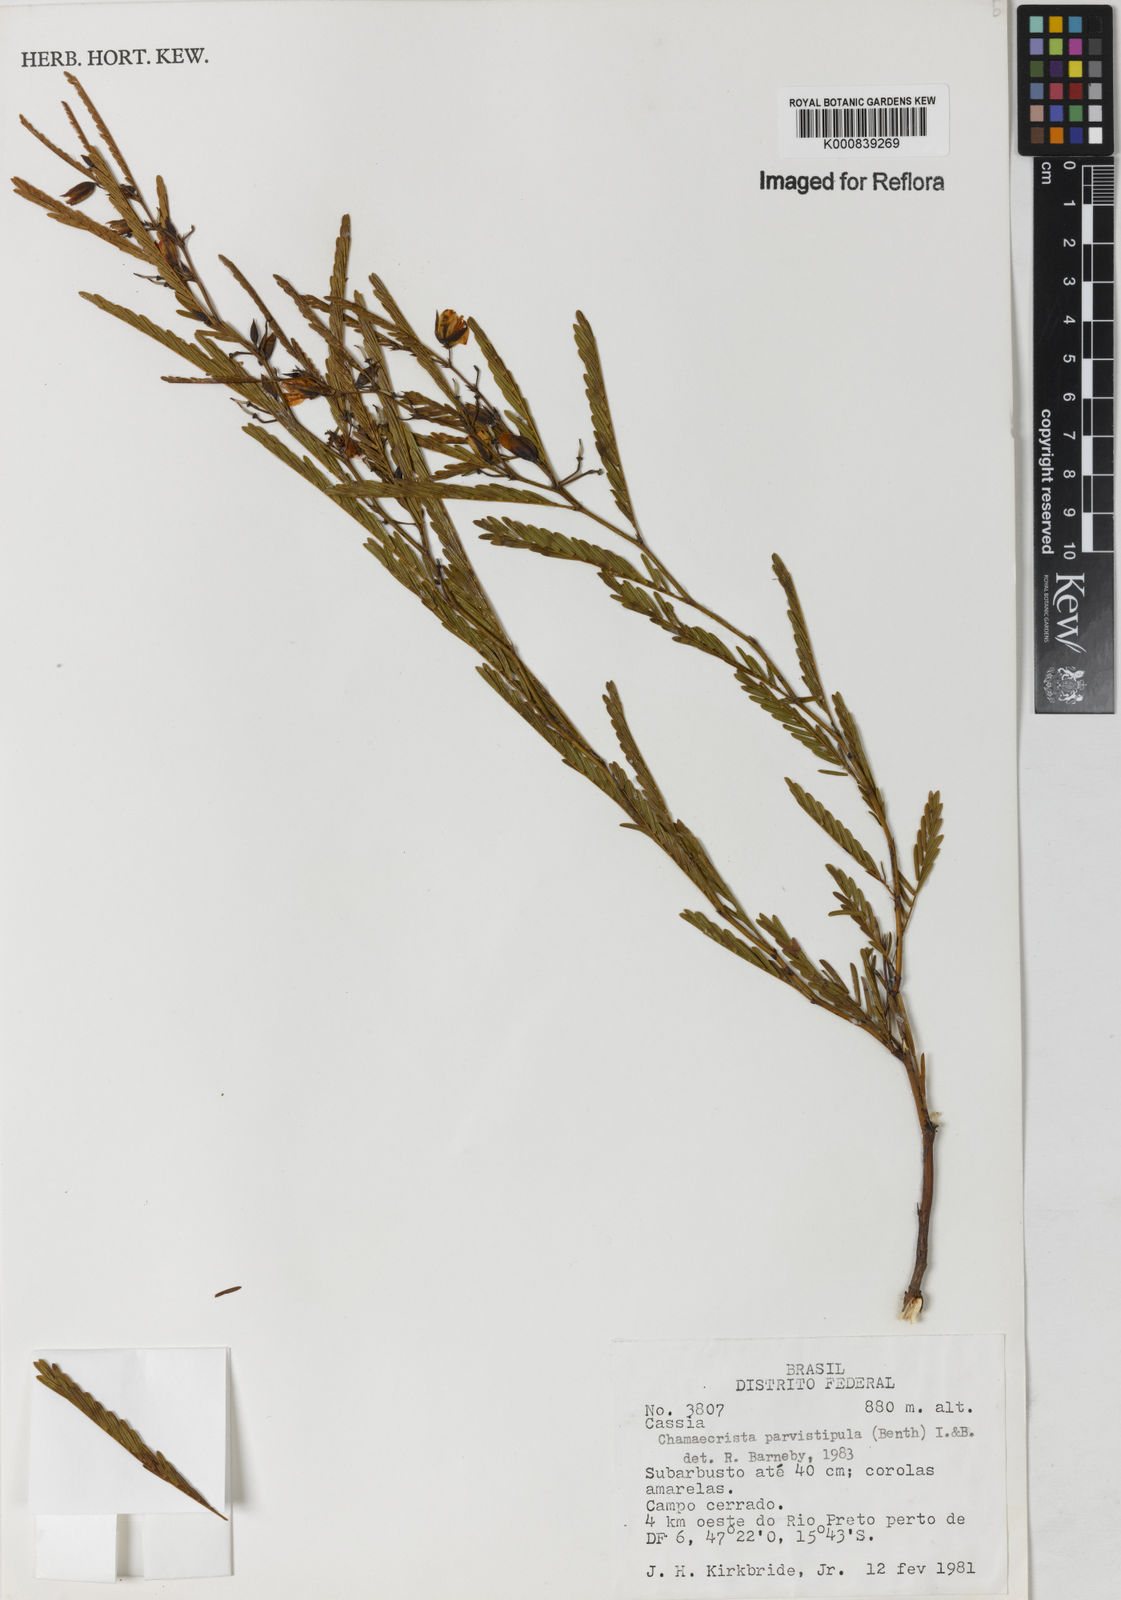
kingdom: Plantae
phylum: Tracheophyta
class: Magnoliopsida
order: Fabales
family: Fabaceae
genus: Chamaecrista
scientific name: Chamaecrista parvistipula
